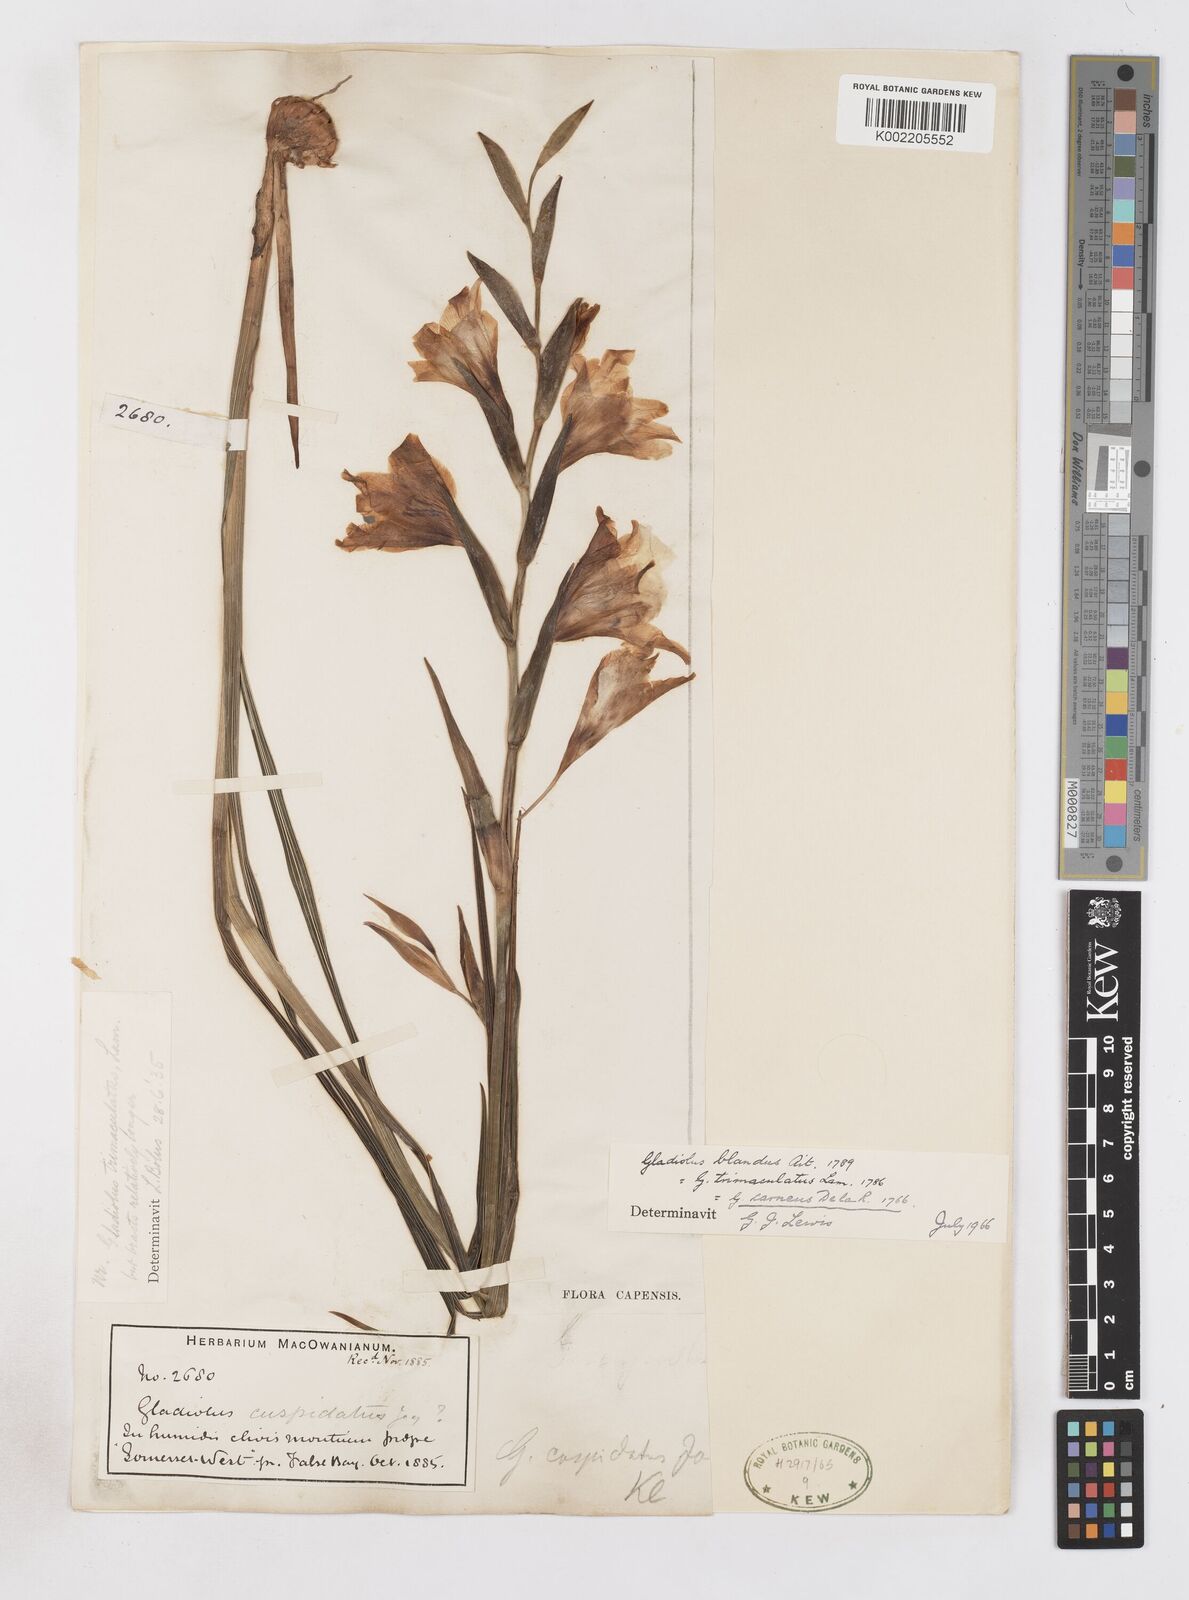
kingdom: Plantae
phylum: Tracheophyta
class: Liliopsida
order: Asparagales
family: Iridaceae
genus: Gladiolus
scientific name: Gladiolus carneus
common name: Painted-lady
